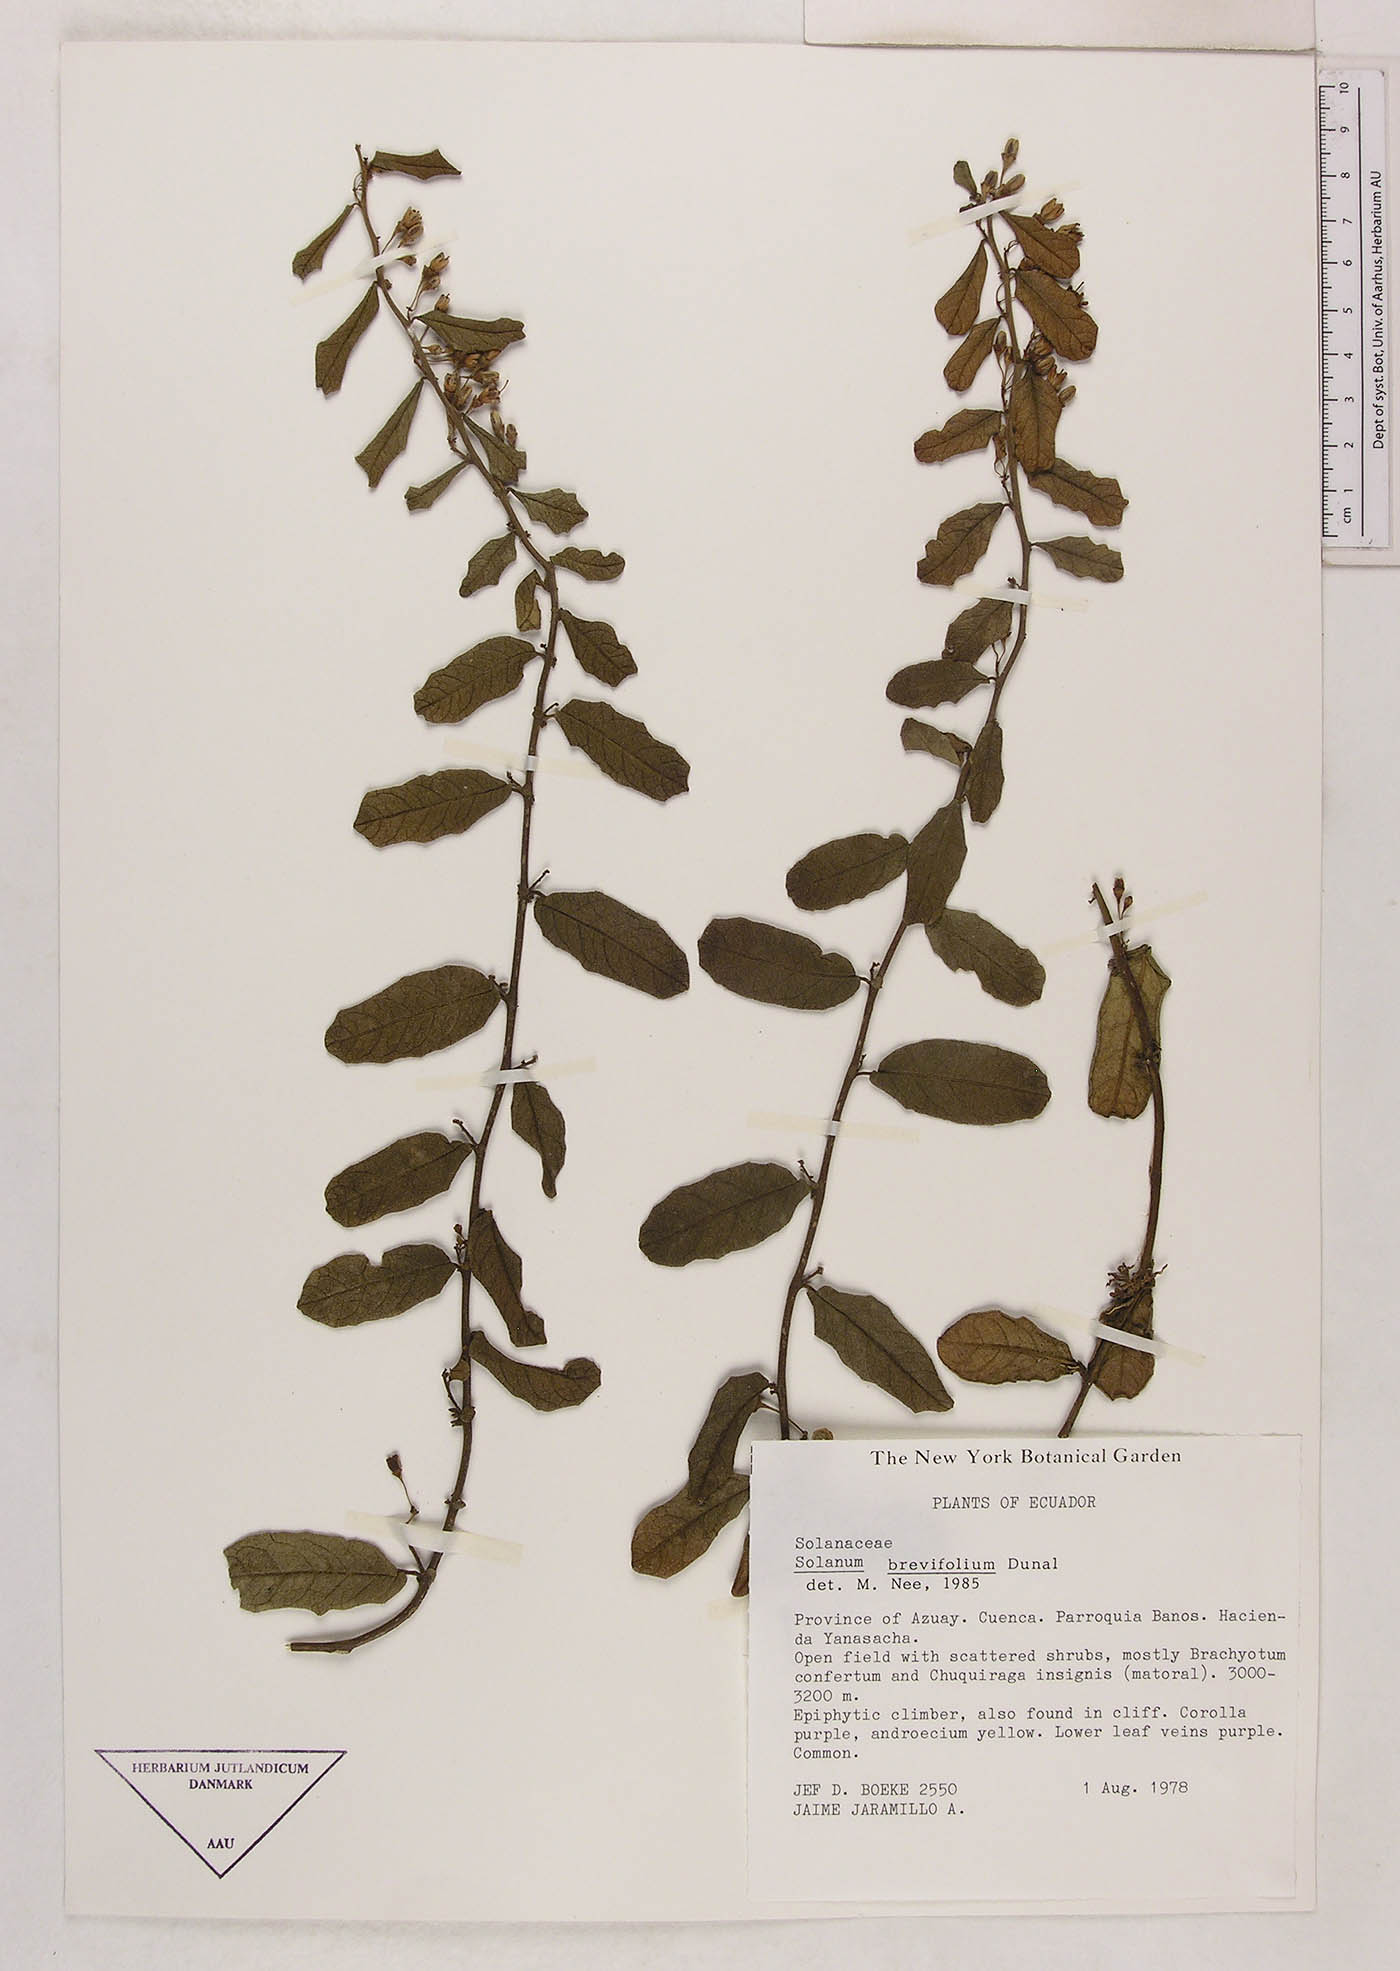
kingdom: Plantae
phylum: Tracheophyta
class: Magnoliopsida
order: Solanales
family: Solanaceae
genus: Solanum
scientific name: Solanum brevifolium
